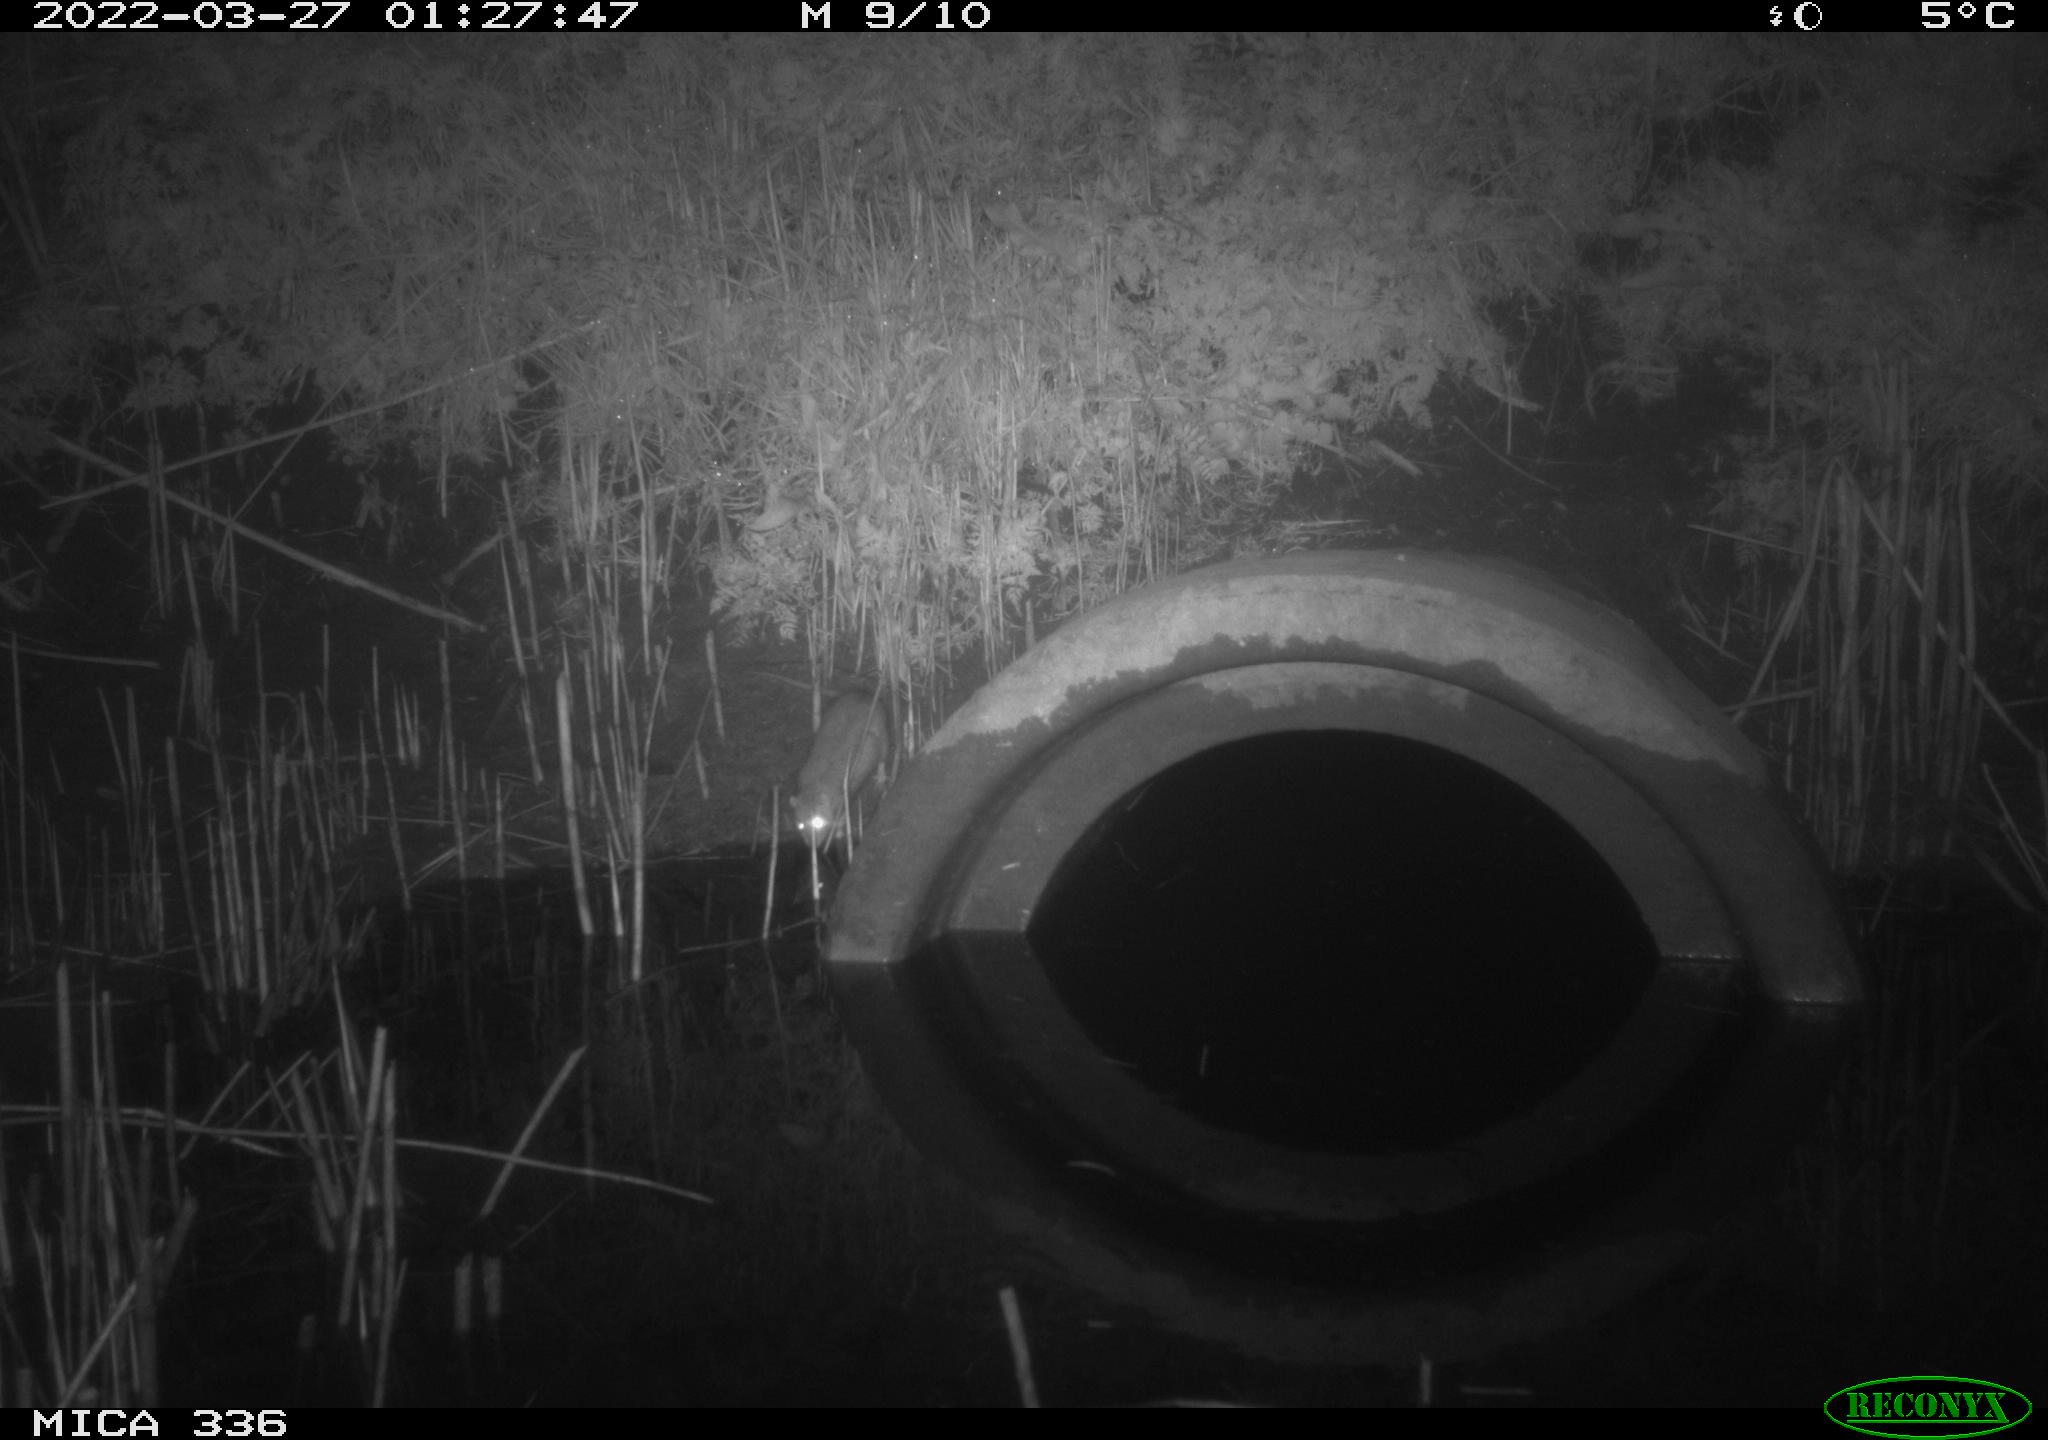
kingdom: Animalia
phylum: Chordata
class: Mammalia
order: Rodentia
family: Muridae
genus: Rattus
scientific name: Rattus norvegicus
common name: Brown rat
